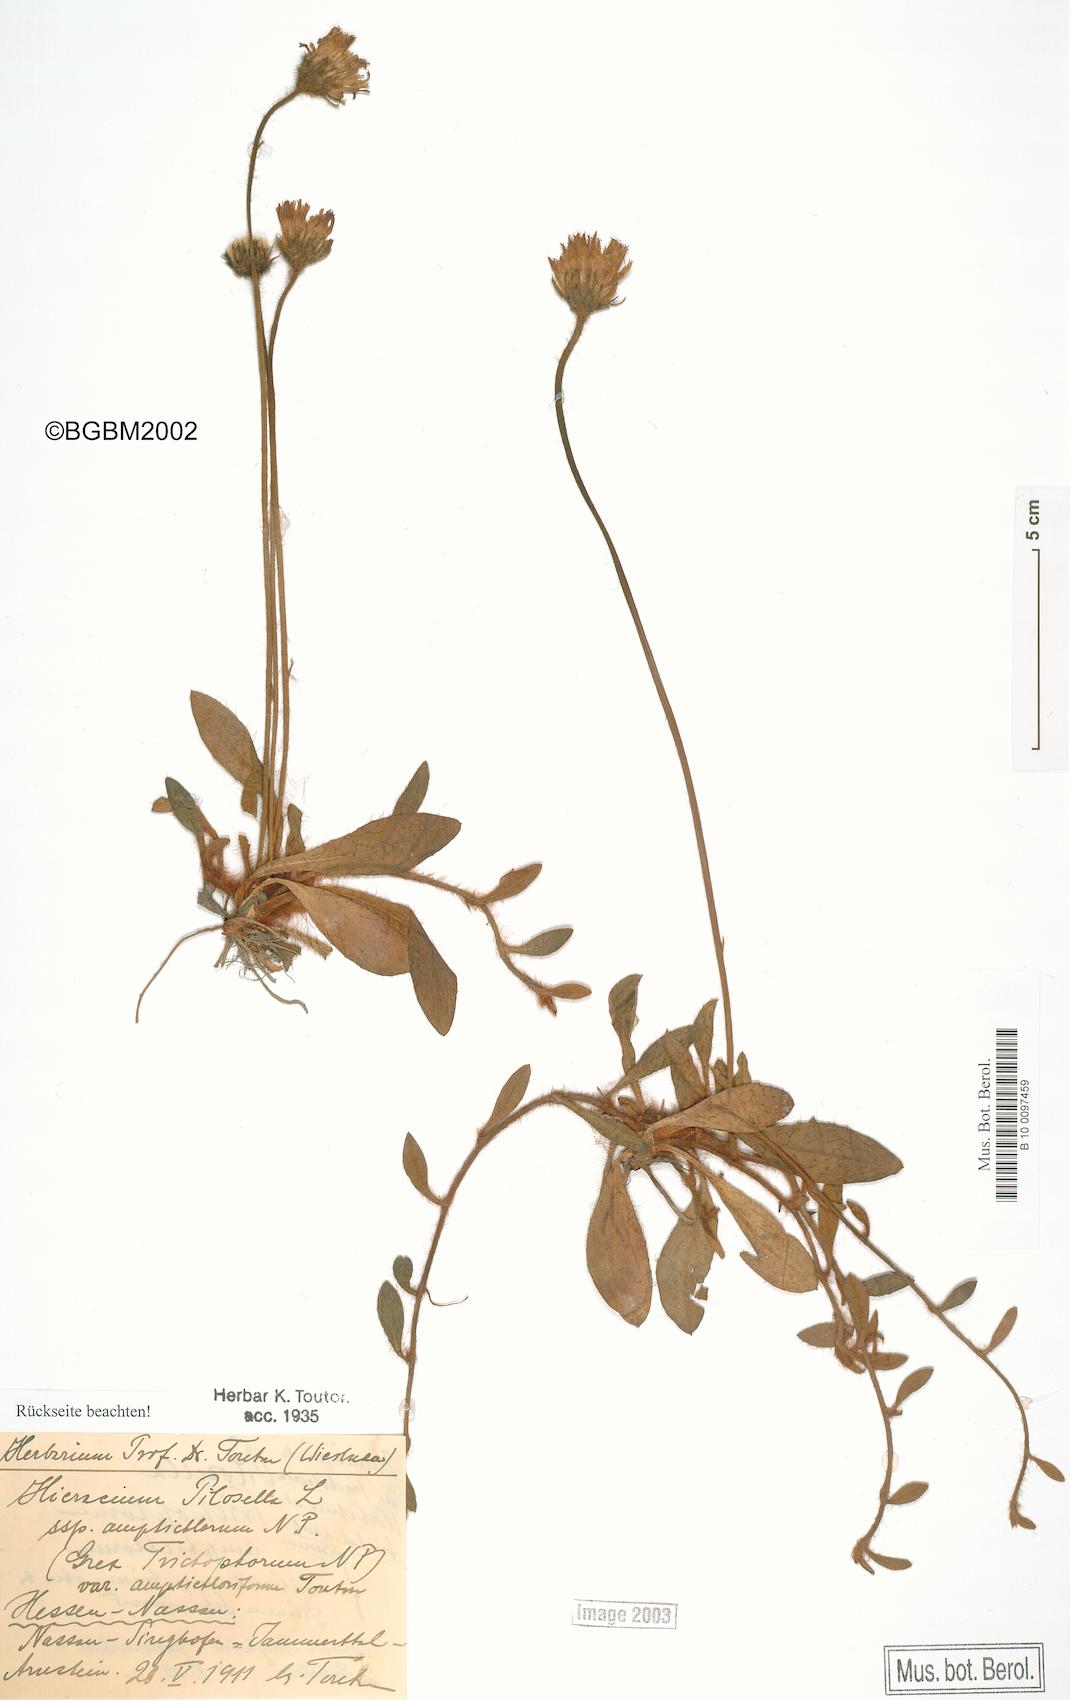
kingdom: Plantae
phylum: Tracheophyta
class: Magnoliopsida
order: Asterales
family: Asteraceae
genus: Pilosella
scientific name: Pilosella officinarum
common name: Mouse-ear hawkweed
